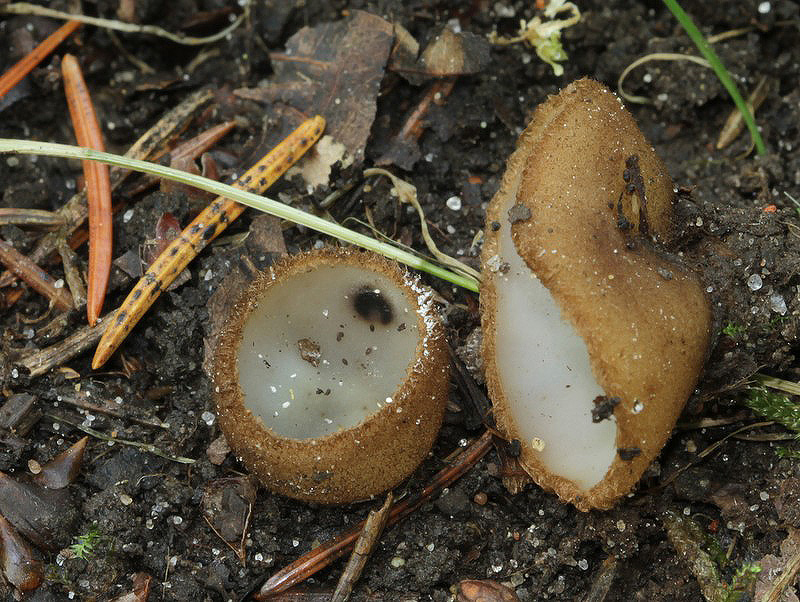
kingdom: Fungi
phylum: Ascomycota
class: Pezizomycetes
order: Pezizales
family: Pyronemataceae
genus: Humaria
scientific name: Humaria hemisphaerica
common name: halvkugleformet børstebæger
